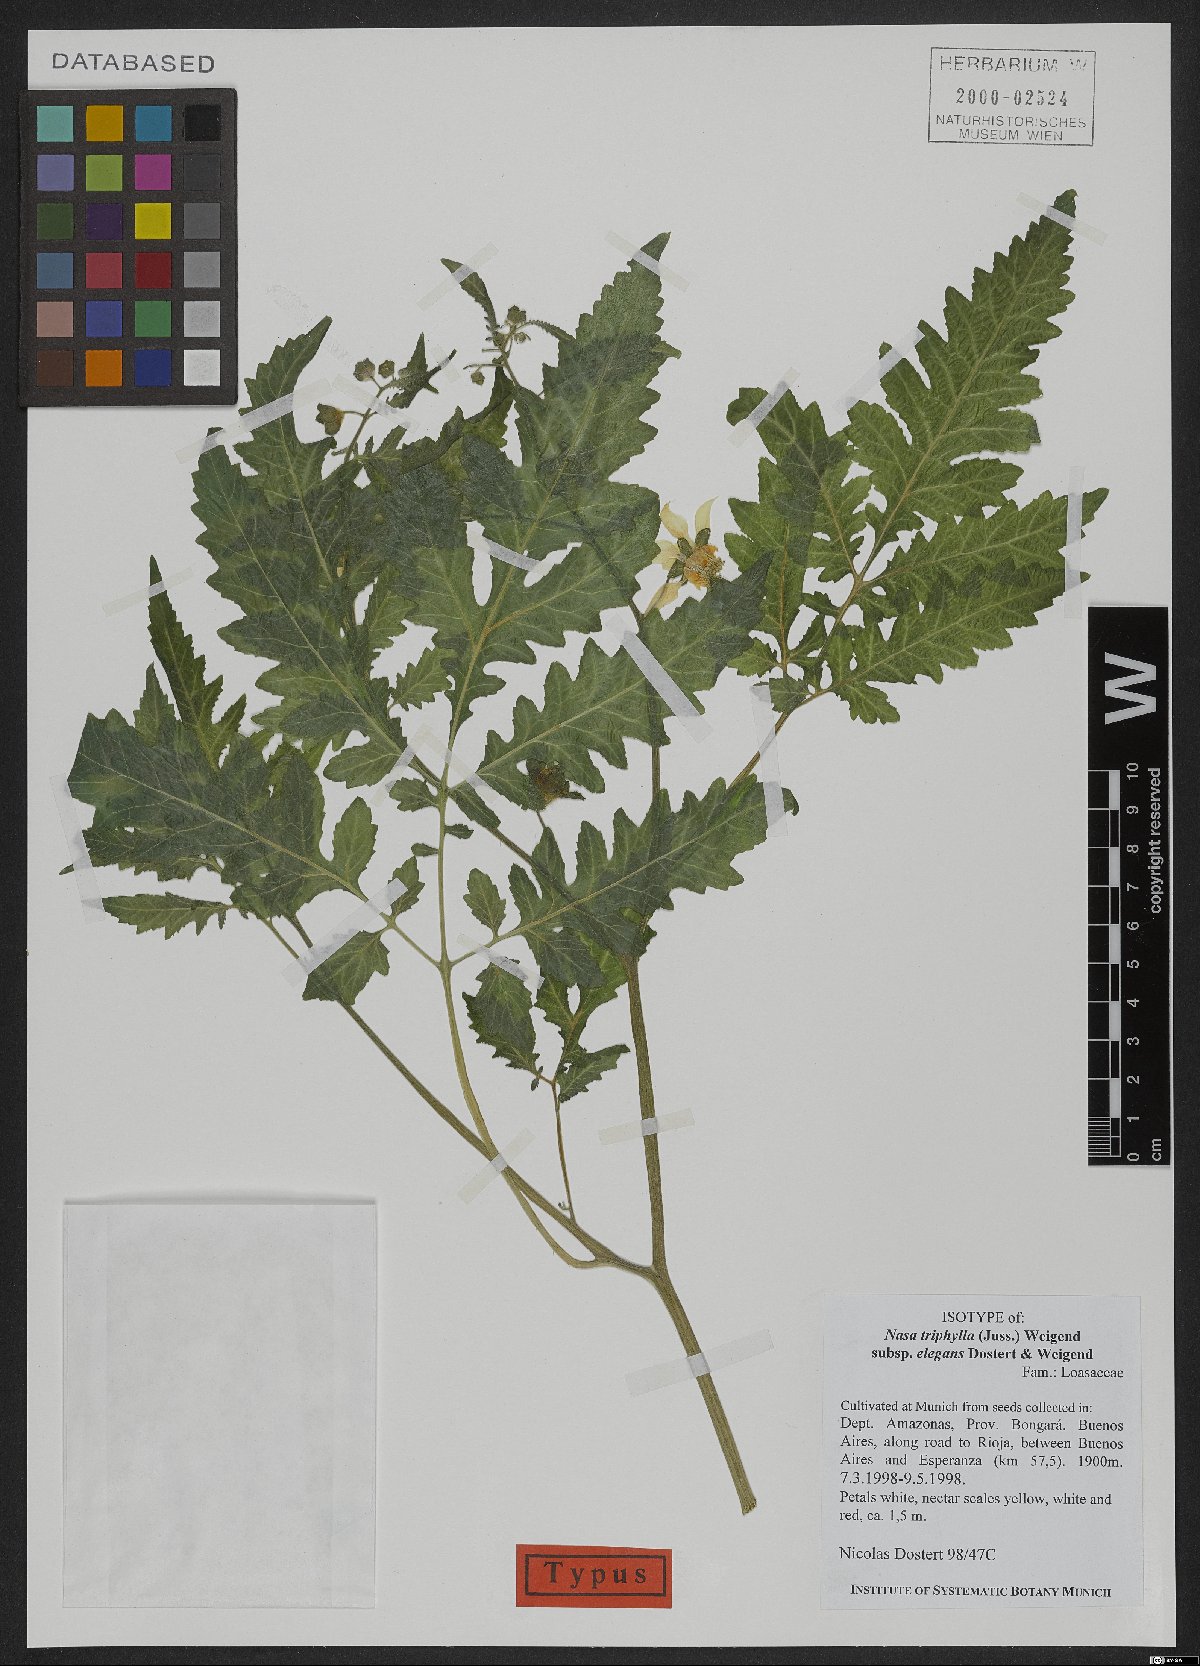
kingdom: Plantae
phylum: Tracheophyta
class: Magnoliopsida
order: Cornales
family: Loasaceae
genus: Nasa
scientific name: Nasa triphylla
